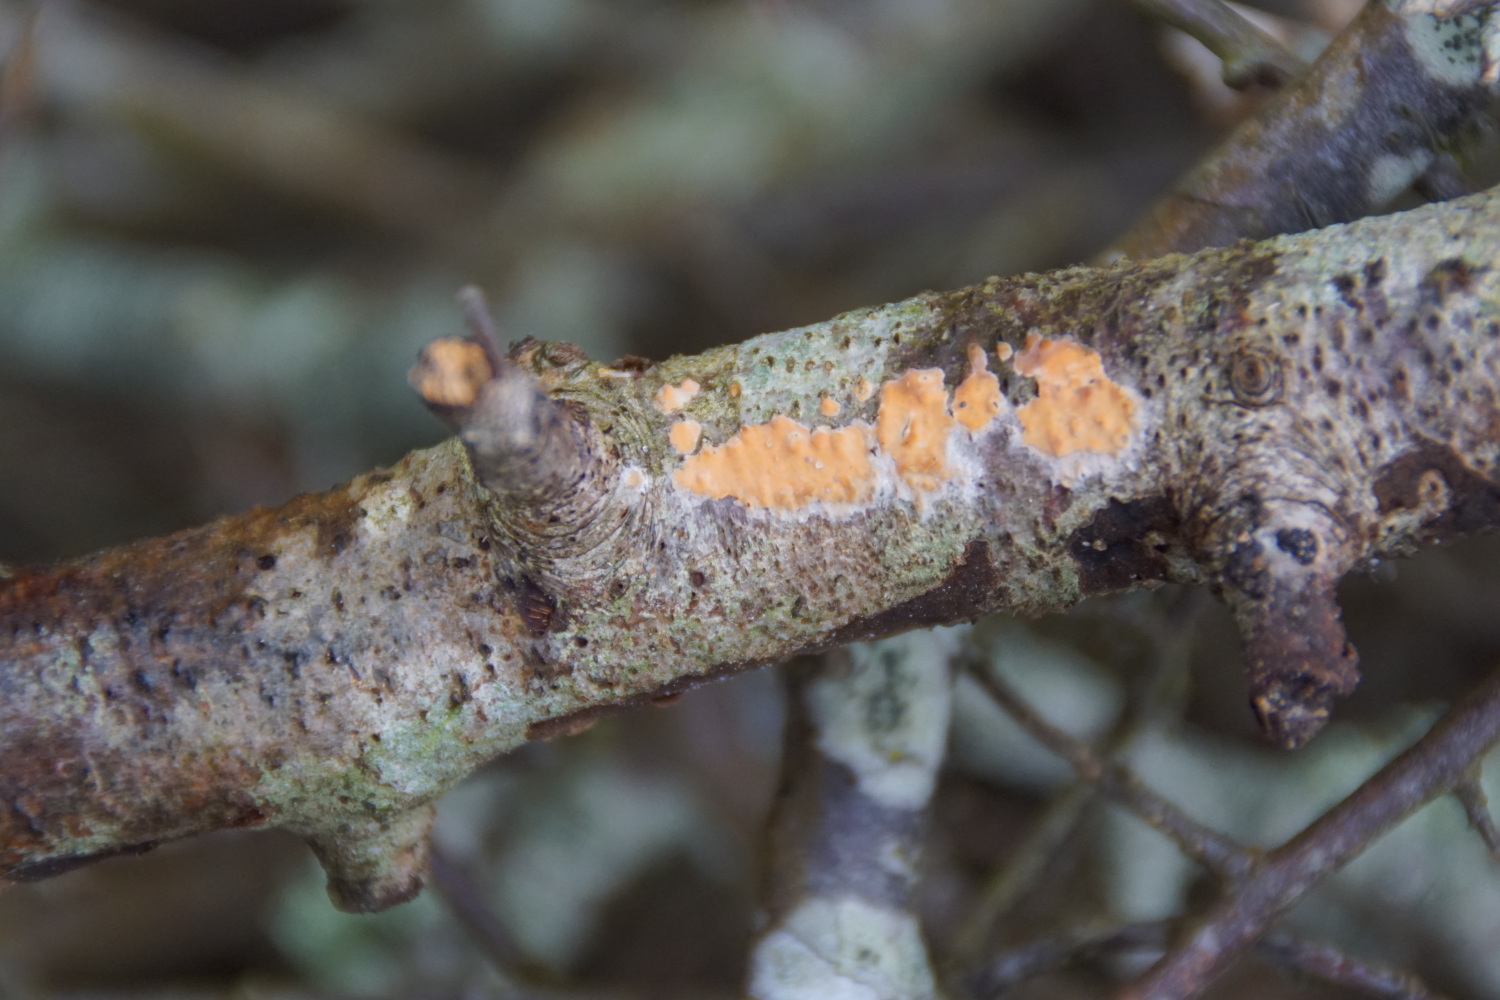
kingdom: Fungi
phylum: Basidiomycota
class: Agaricomycetes
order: Russulales
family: Peniophoraceae
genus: Peniophora
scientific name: Peniophora incarnata
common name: laksefarvet voksskind
